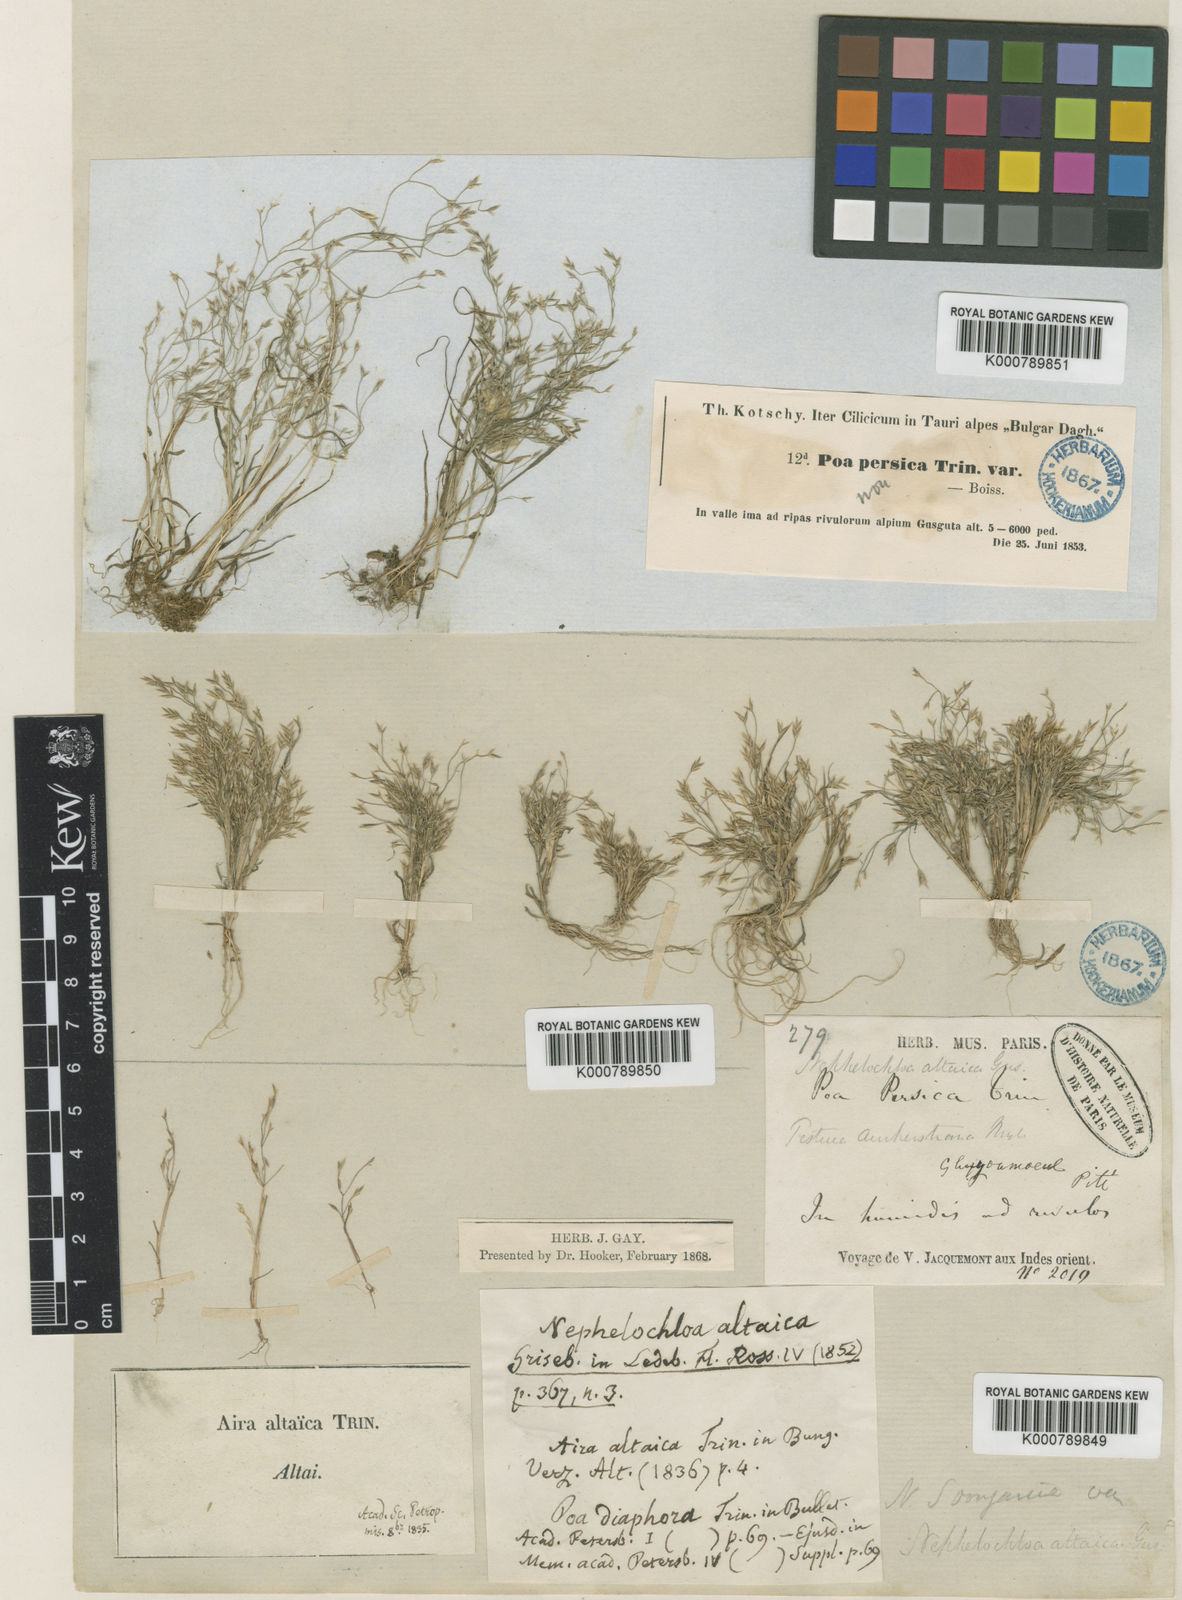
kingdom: Plantae
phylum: Tracheophyta
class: Liliopsida
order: Poales
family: Poaceae
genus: Poa
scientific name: Poa diaphora
